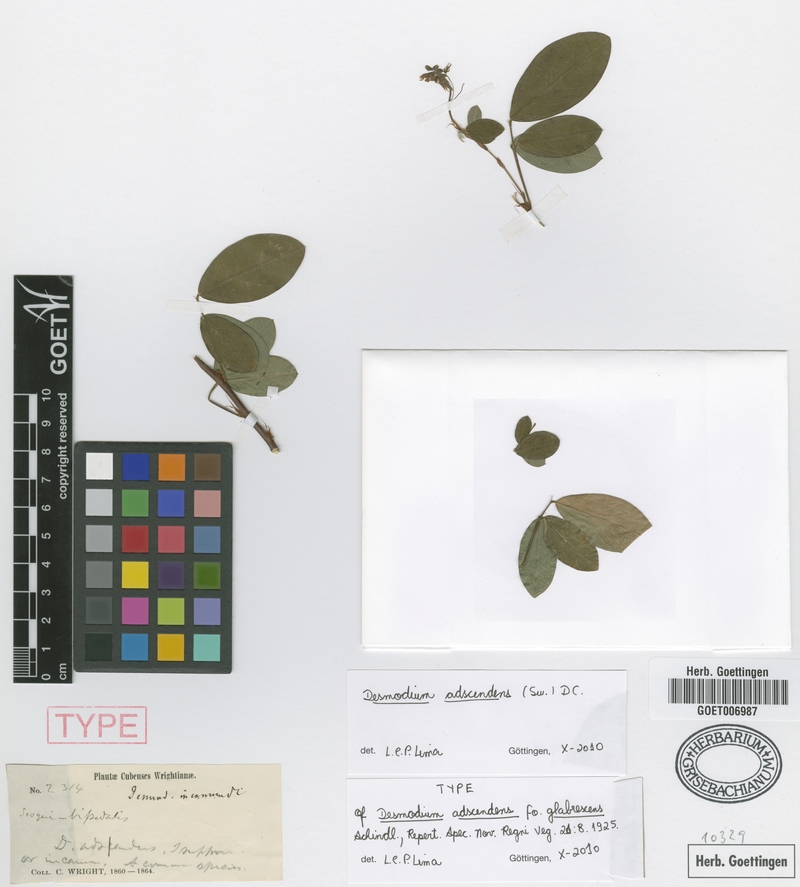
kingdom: Plantae
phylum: Tracheophyta
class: Magnoliopsida
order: Fabales
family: Fabaceae
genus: Grona
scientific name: Grona adscendens
